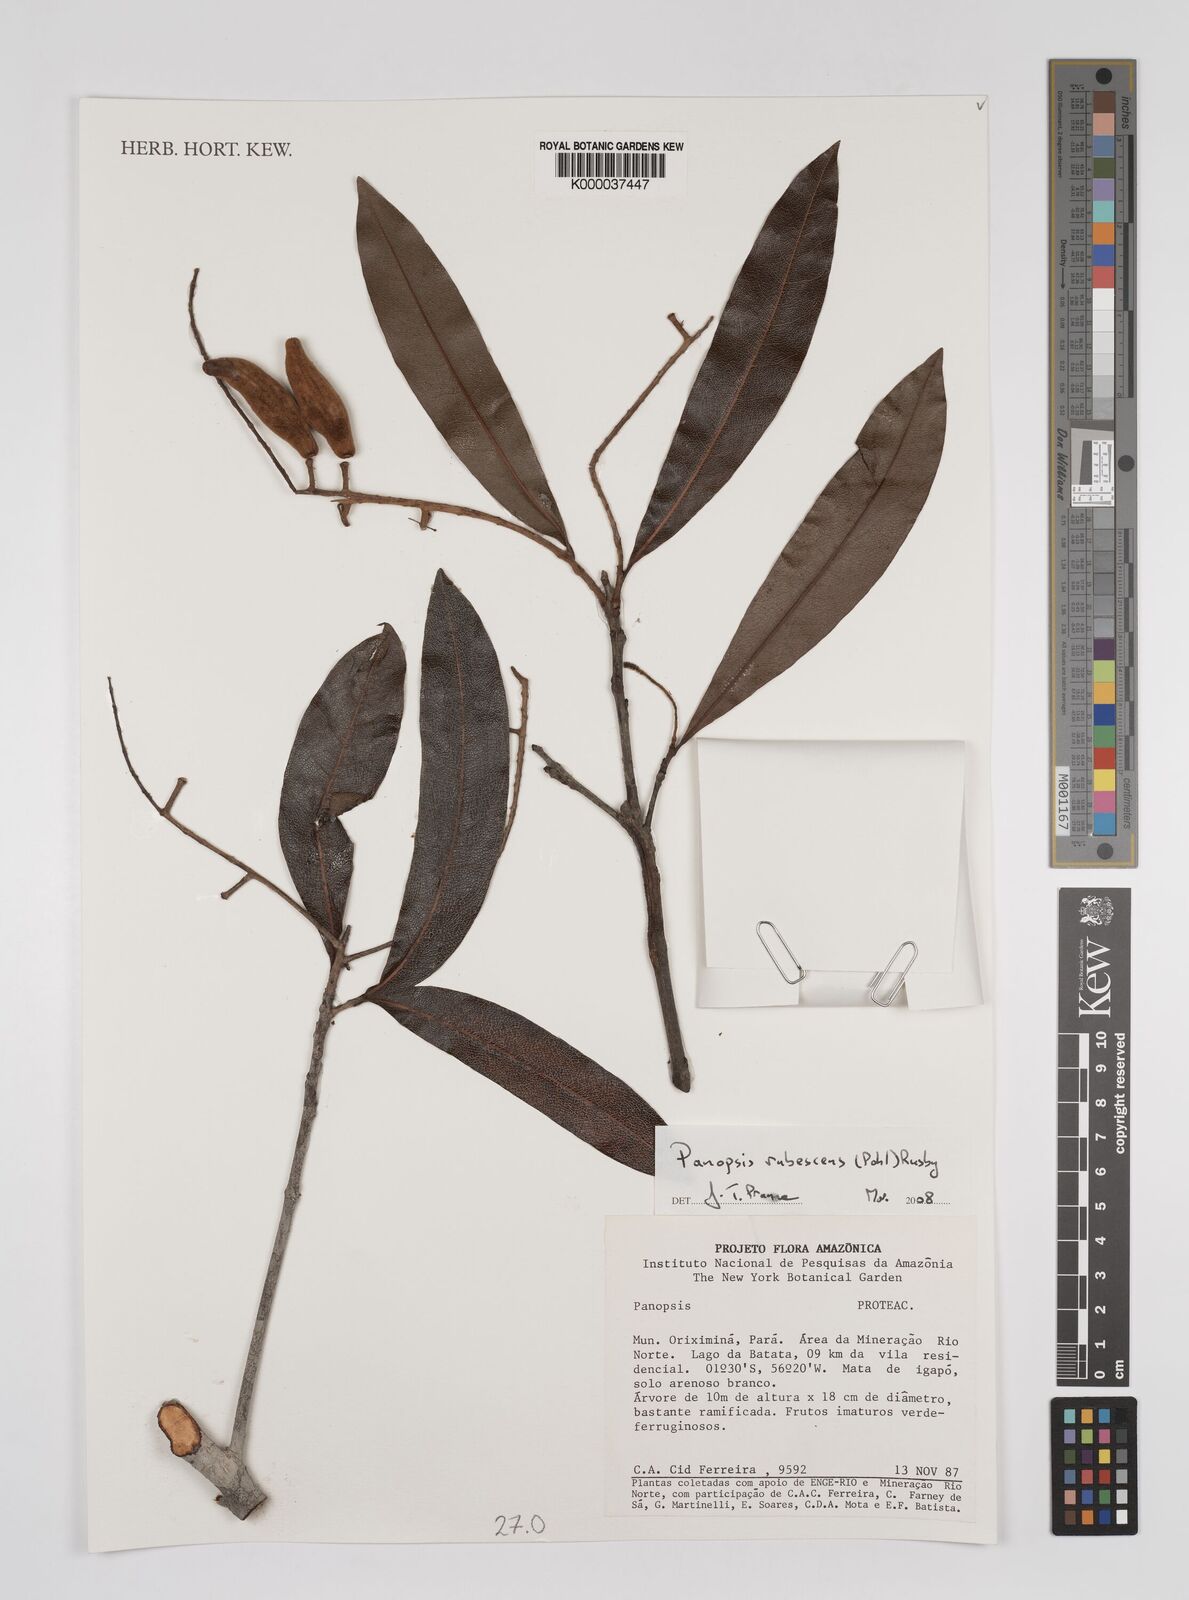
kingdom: Plantae
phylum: Tracheophyta
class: Magnoliopsida
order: Proteales
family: Proteaceae
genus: Panopsis
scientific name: Panopsis
